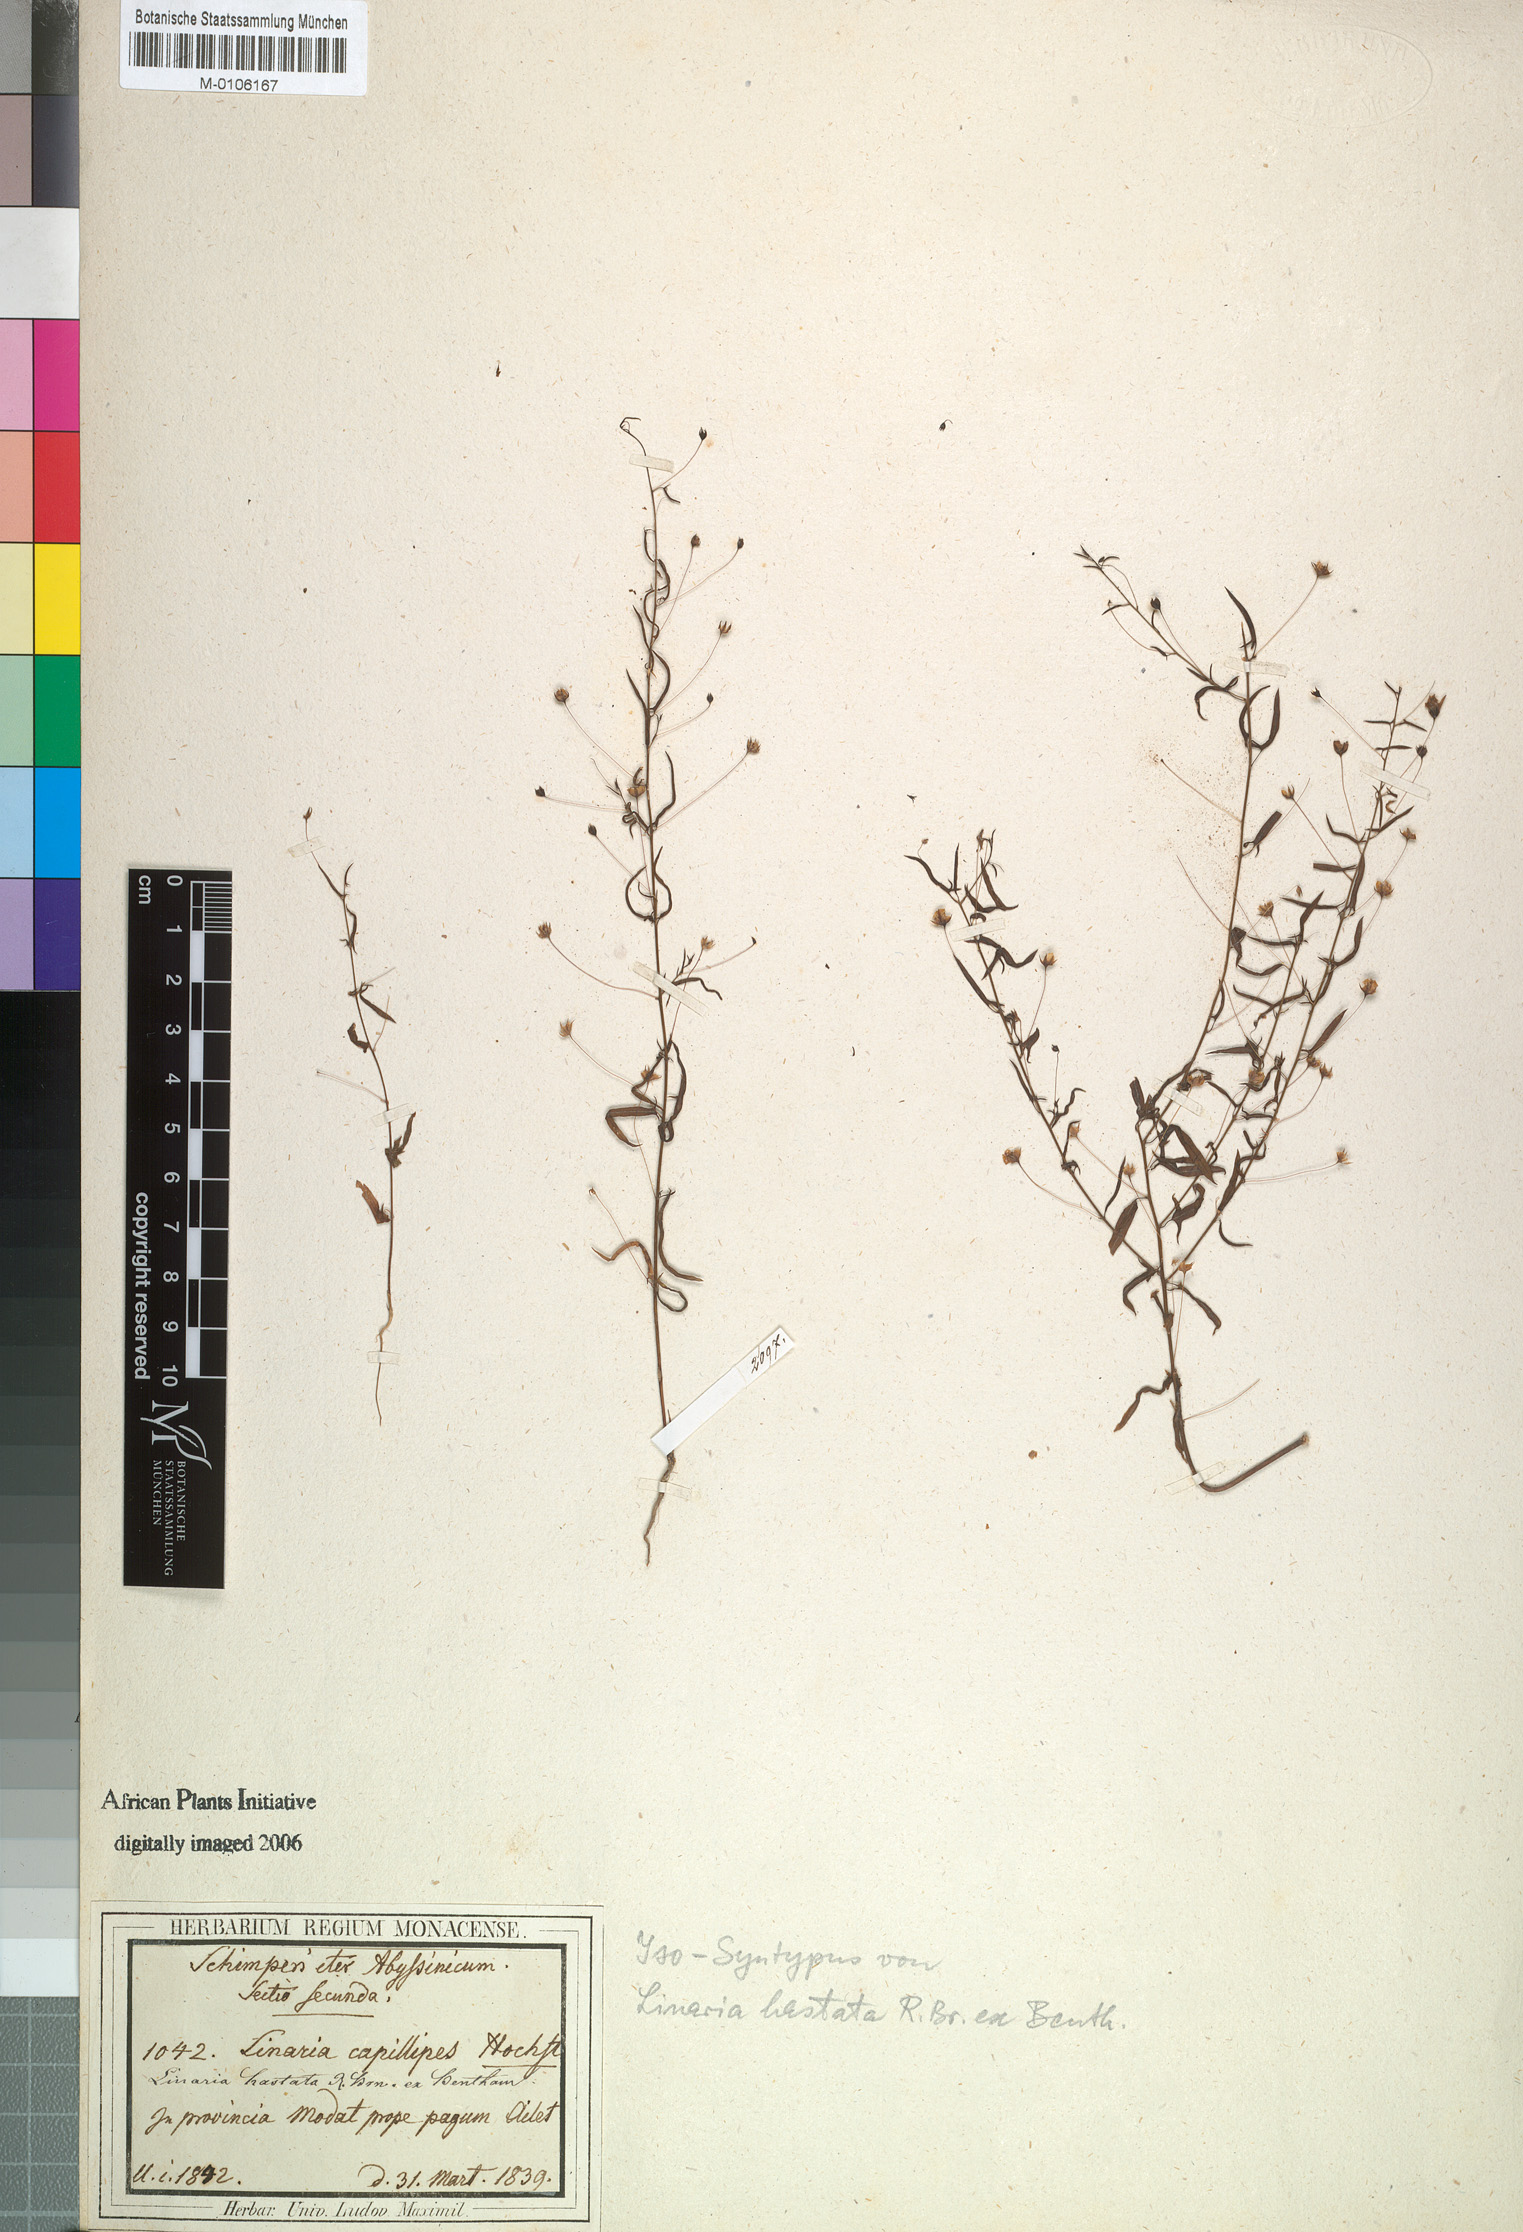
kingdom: Plantae
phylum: Tracheophyta
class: Magnoliopsida
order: Lamiales
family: Plantaginaceae
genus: Nanorrhinum
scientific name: Nanorrhinum hastatum
